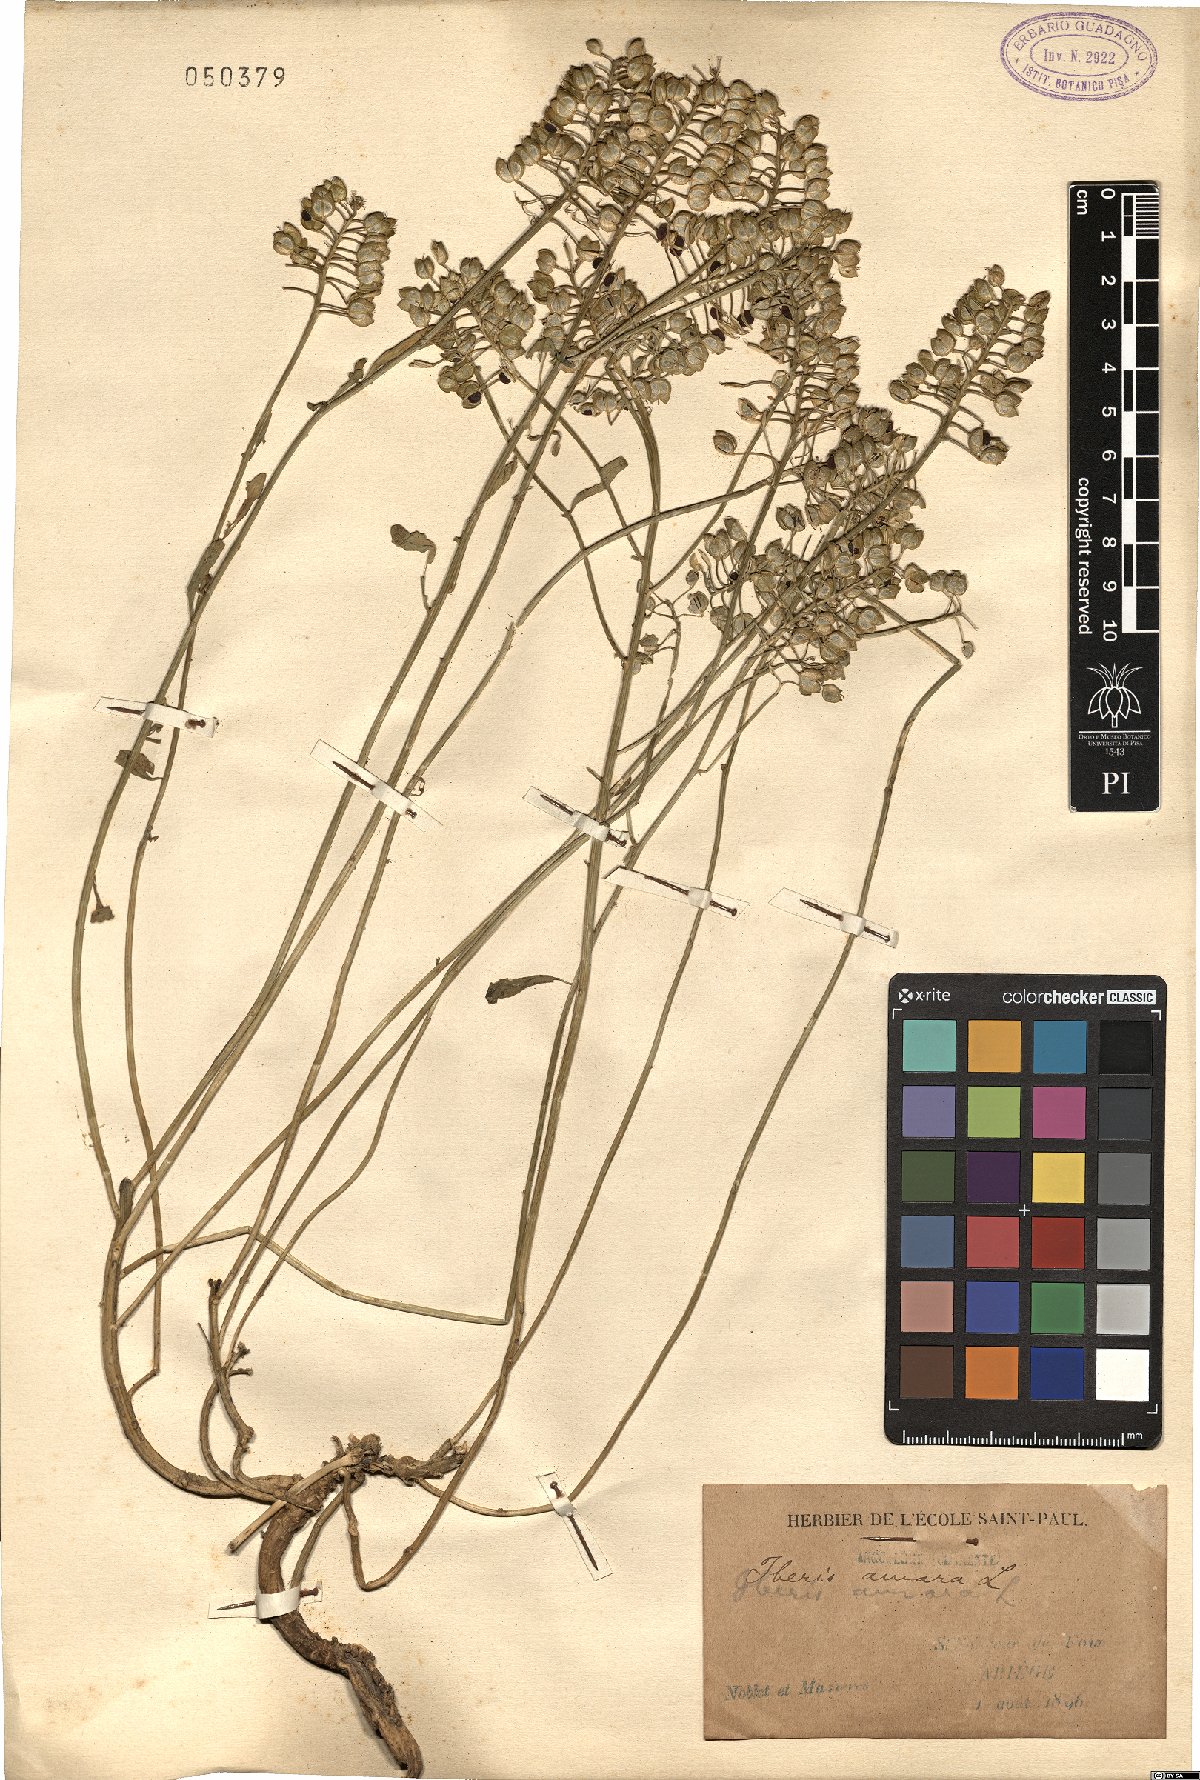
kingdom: Plantae
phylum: Tracheophyta
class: Magnoliopsida
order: Brassicales
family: Brassicaceae
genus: Iberis
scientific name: Iberis amara
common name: Annual candytuft
